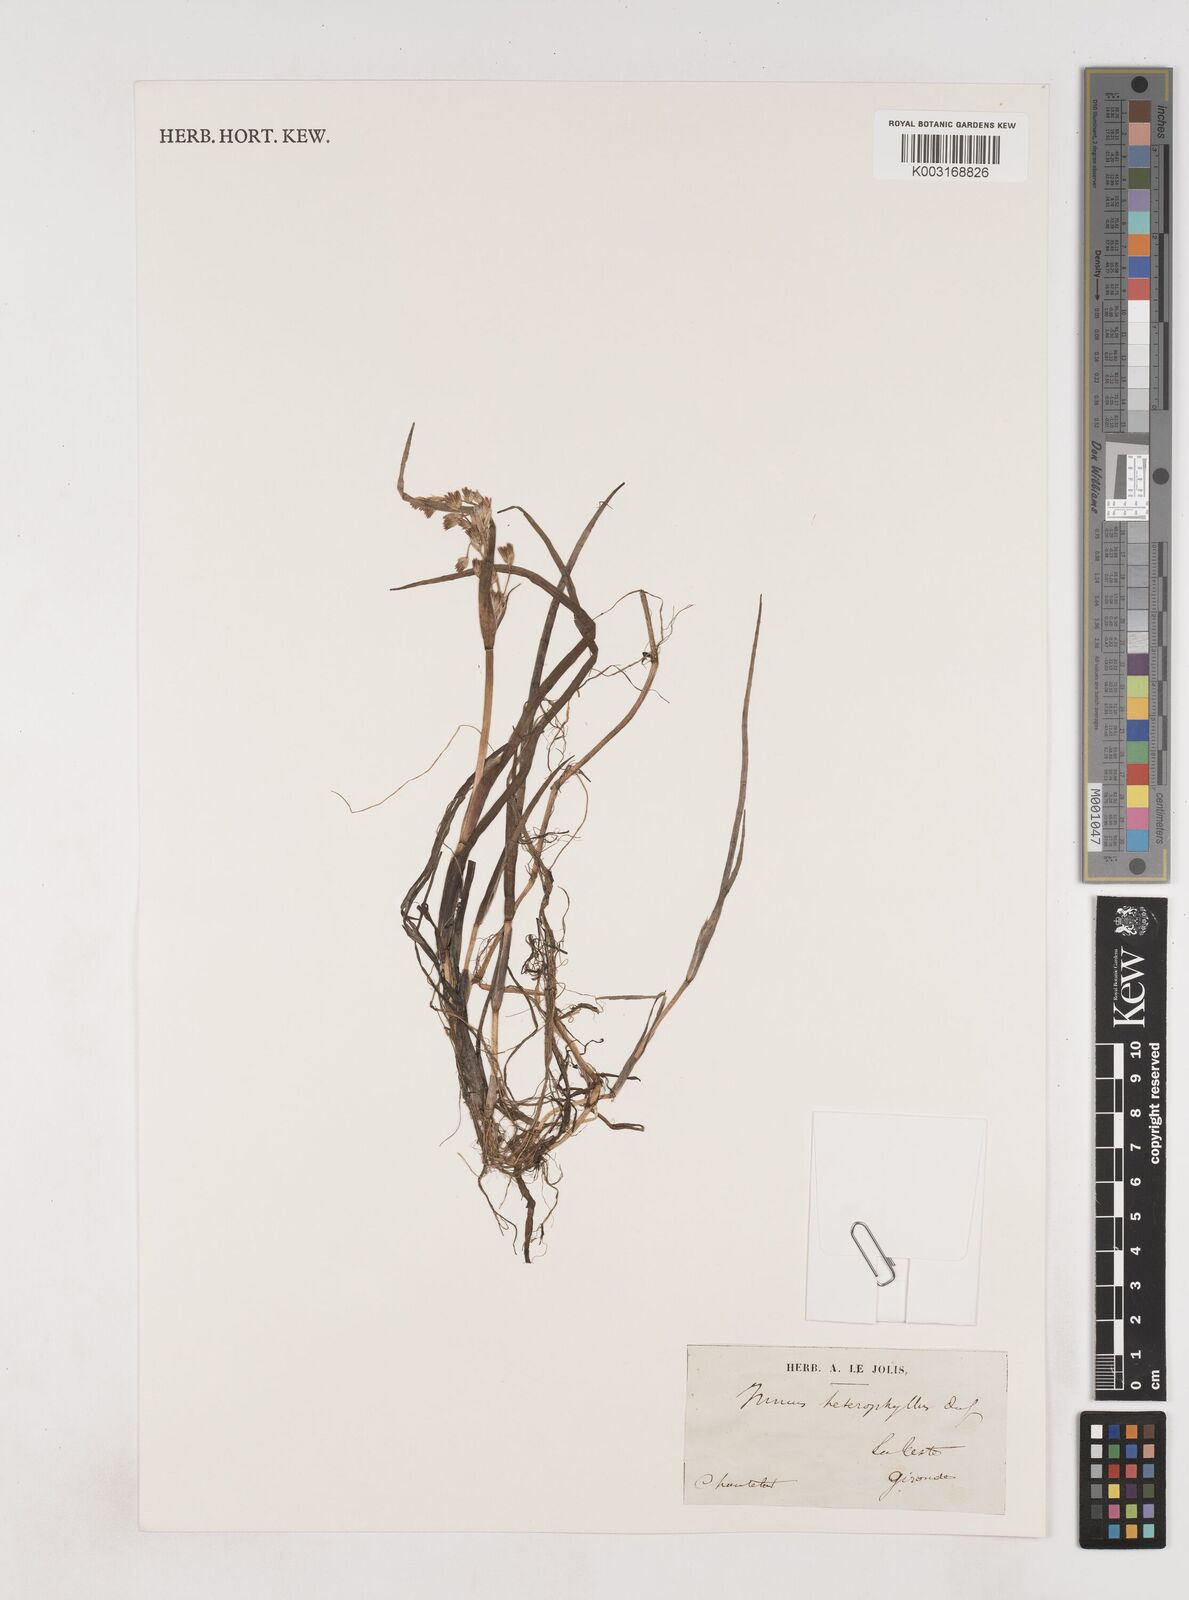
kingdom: Plantae
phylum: Tracheophyta
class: Liliopsida
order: Poales
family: Juncaceae
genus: Juncus
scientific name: Juncus heterophyllus
